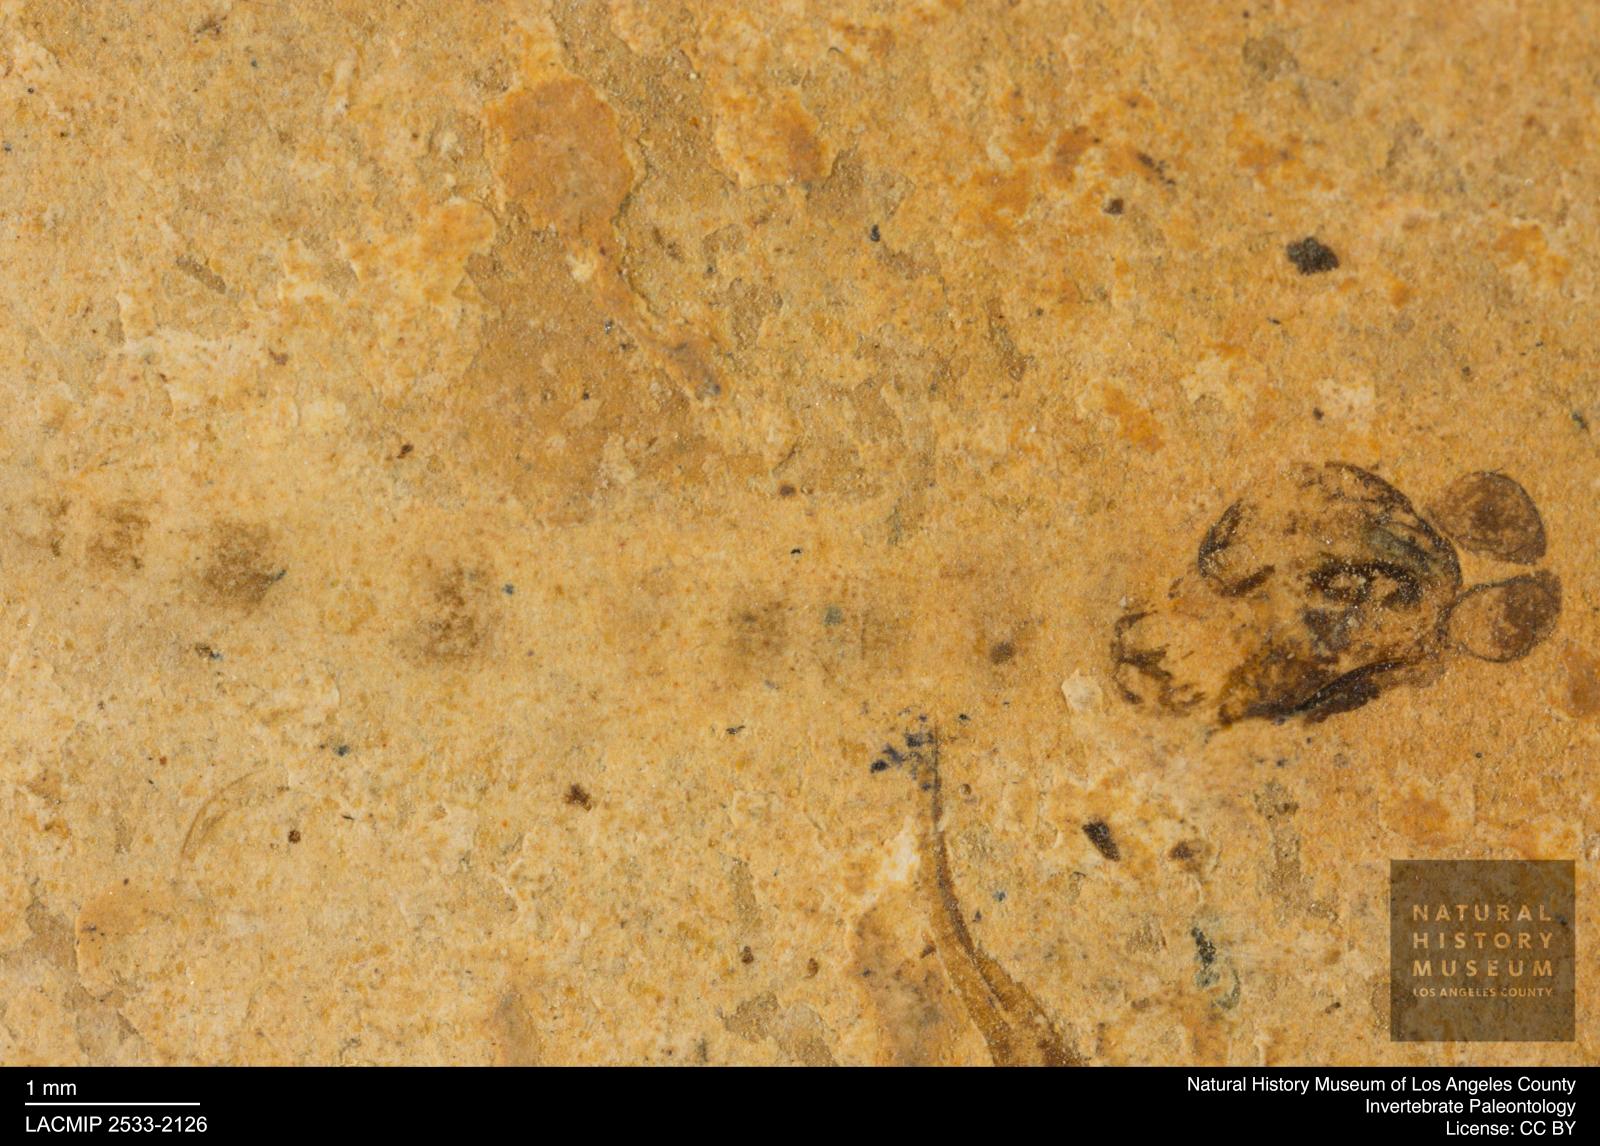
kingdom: Animalia
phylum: Arthropoda
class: Insecta
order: Diptera
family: Chironomidae
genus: Pelopiina
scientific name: Pelopiina
